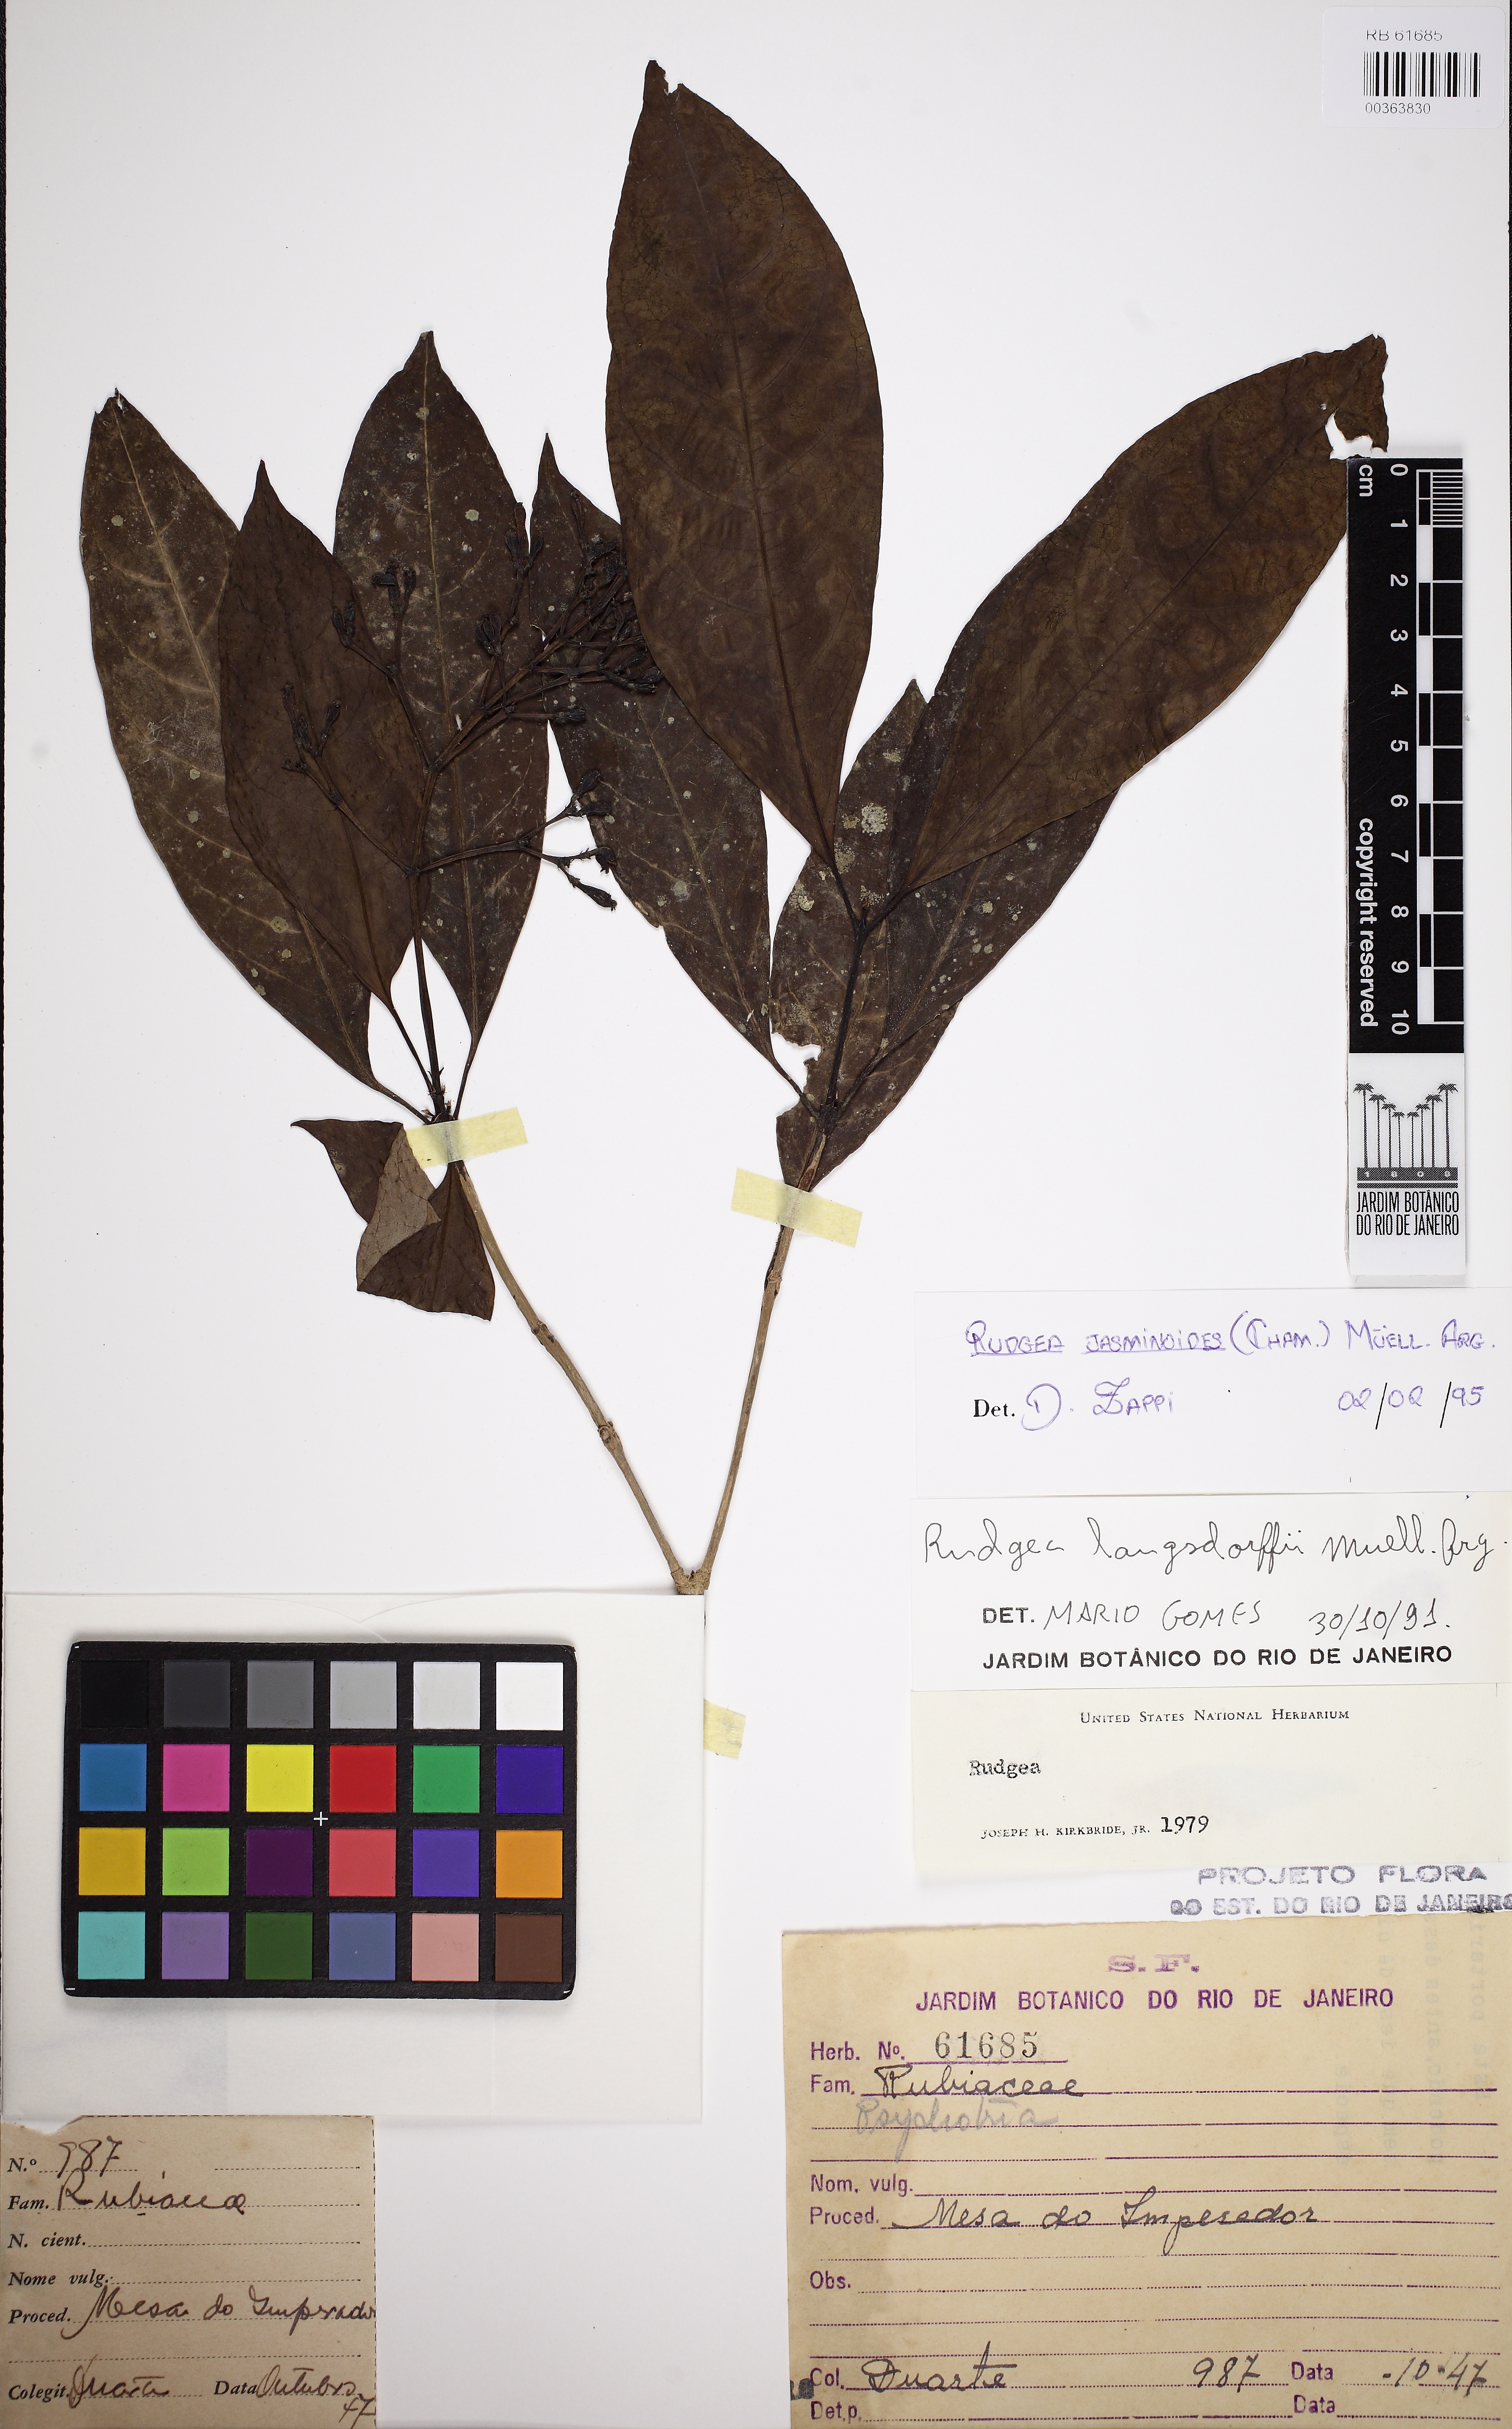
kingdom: Plantae
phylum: Tracheophyta
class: Magnoliopsida
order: Gentianales
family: Rubiaceae
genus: Rudgea
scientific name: Rudgea jasminoides
